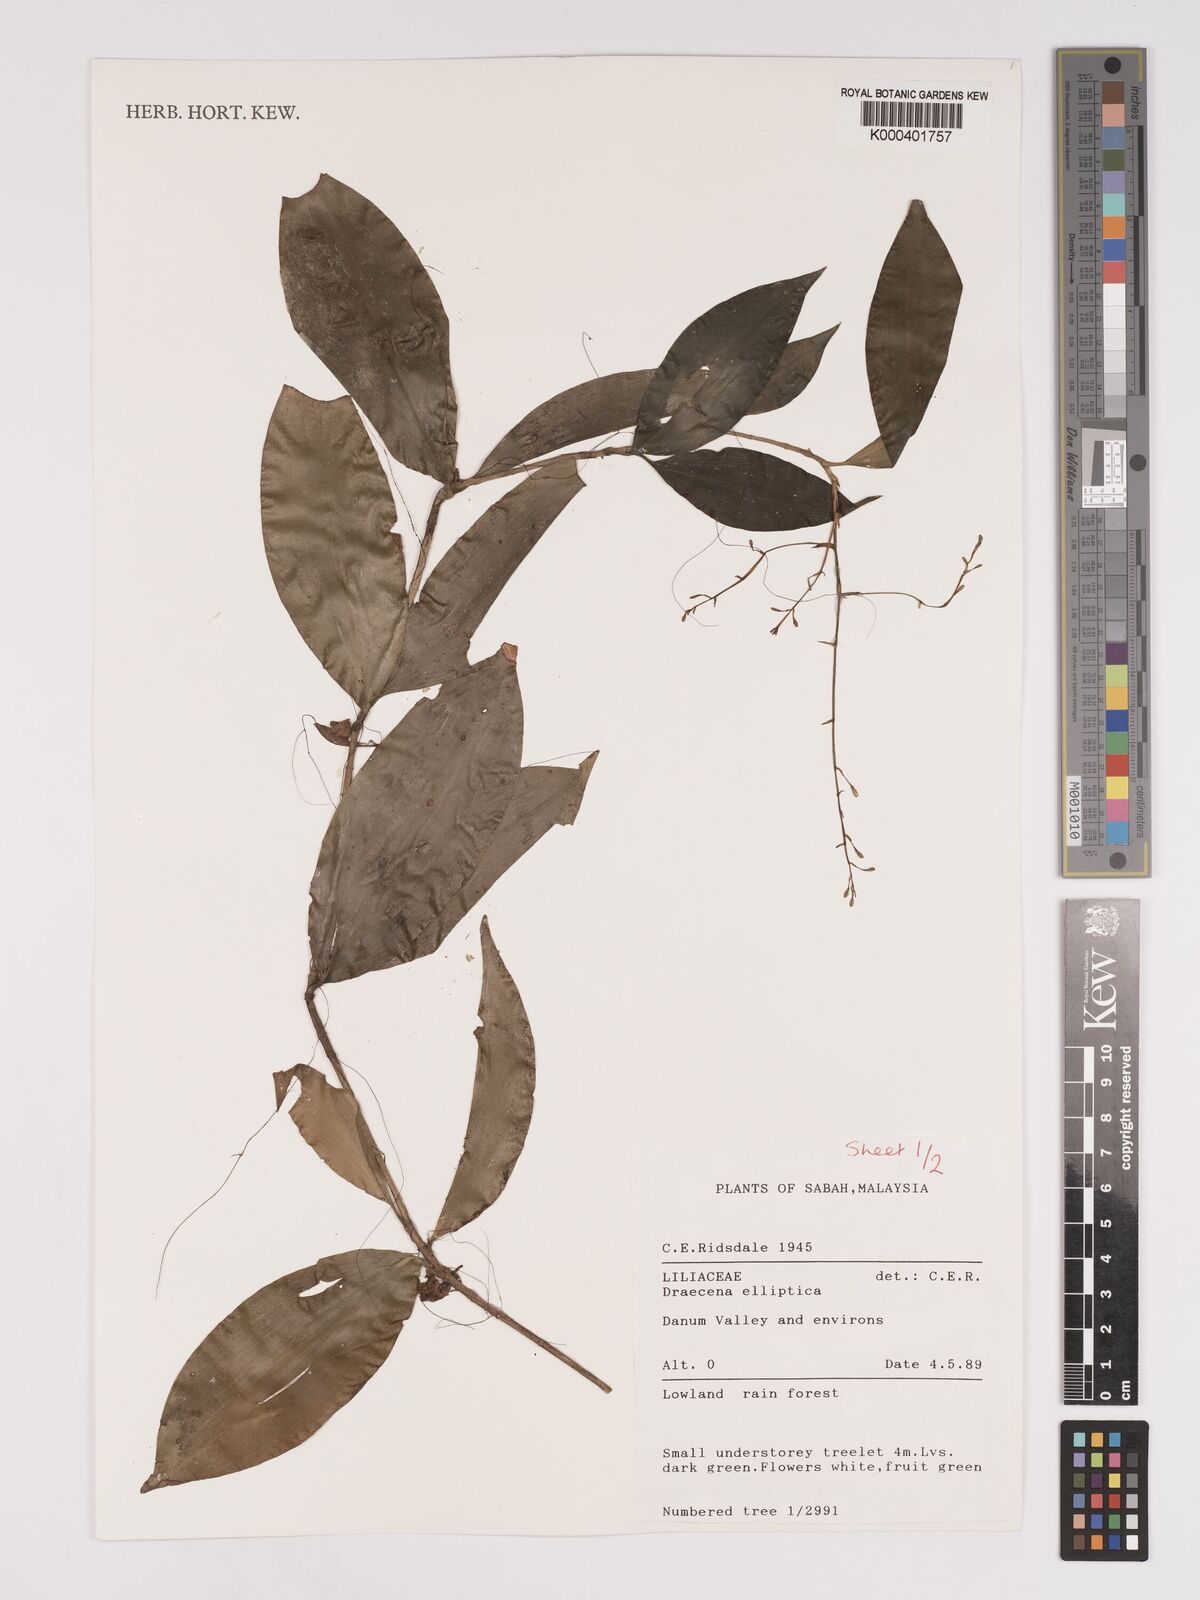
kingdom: Plantae
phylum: Tracheophyta
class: Liliopsida
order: Asparagales
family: Asparagaceae
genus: Dracaena
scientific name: Dracaena elliptica
